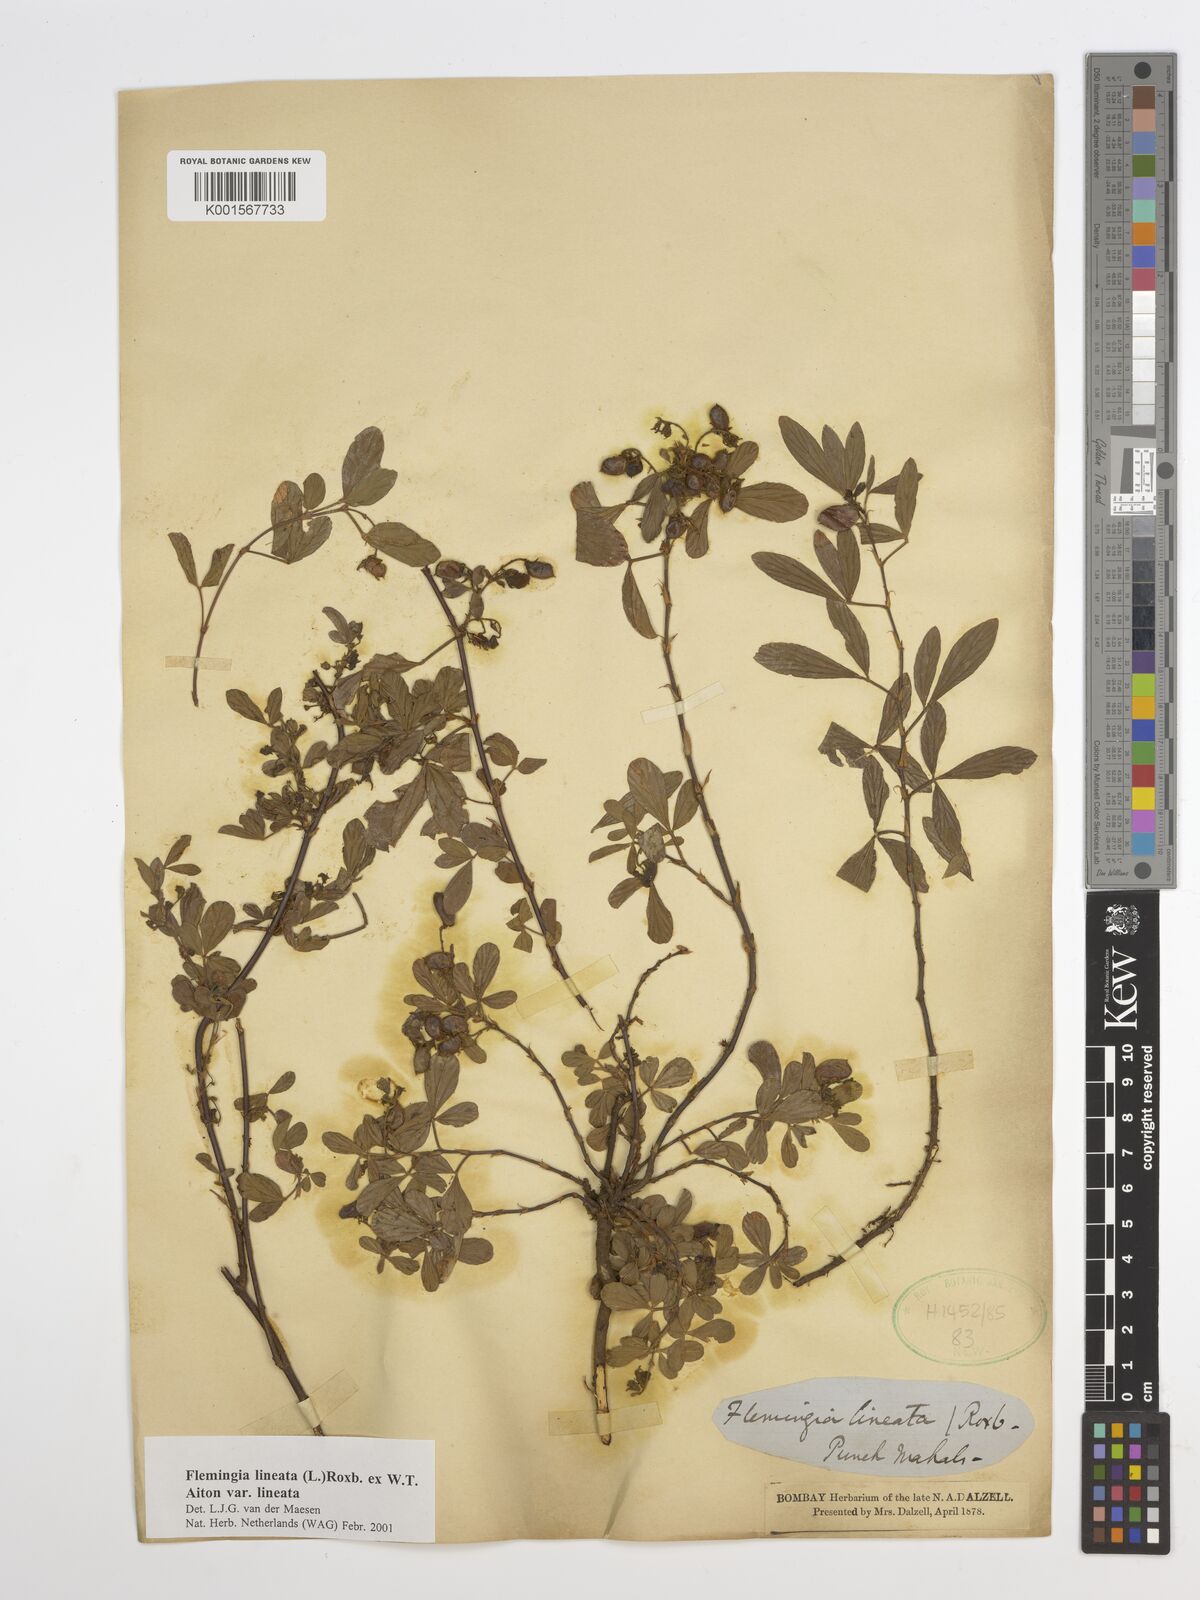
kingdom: Plantae
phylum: Tracheophyta
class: Magnoliopsida
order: Fabales
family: Fabaceae
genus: Flemingia
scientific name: Flemingia lineata
